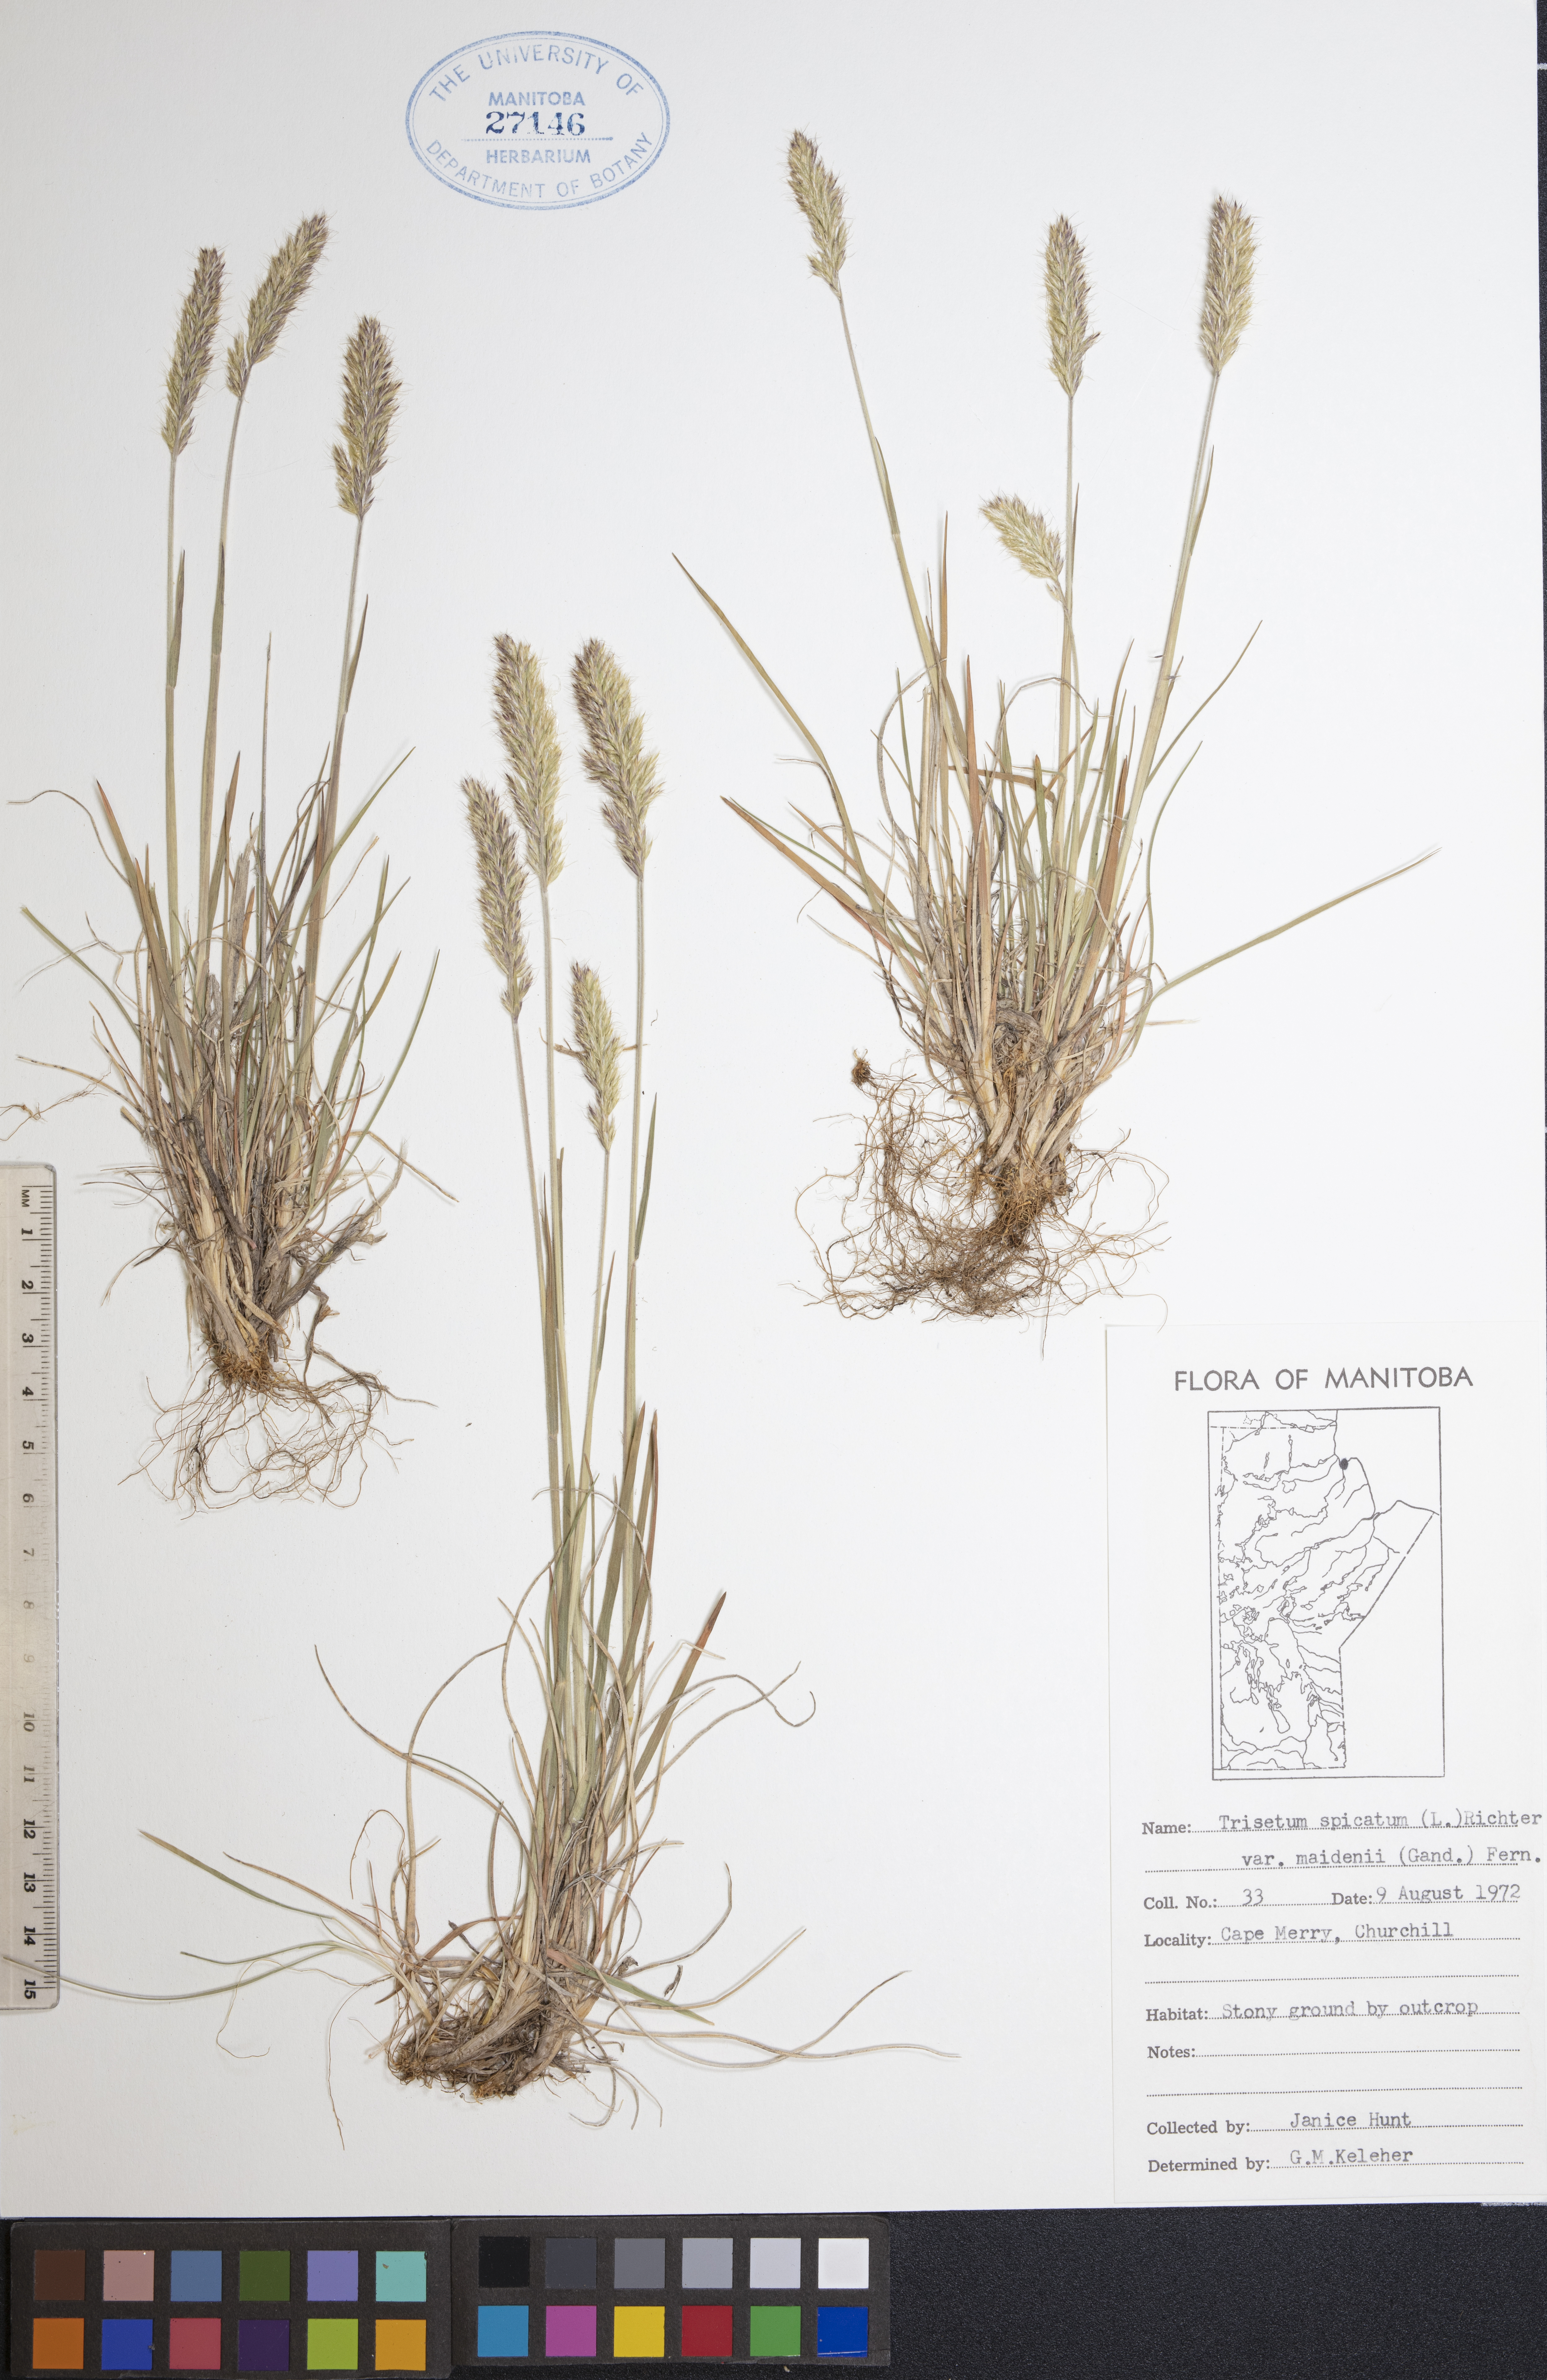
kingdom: Plantae
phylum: Tracheophyta
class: Liliopsida
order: Poales
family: Poaceae
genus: Koeleria
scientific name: Koeleria spicata
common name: Mountain trisetum
